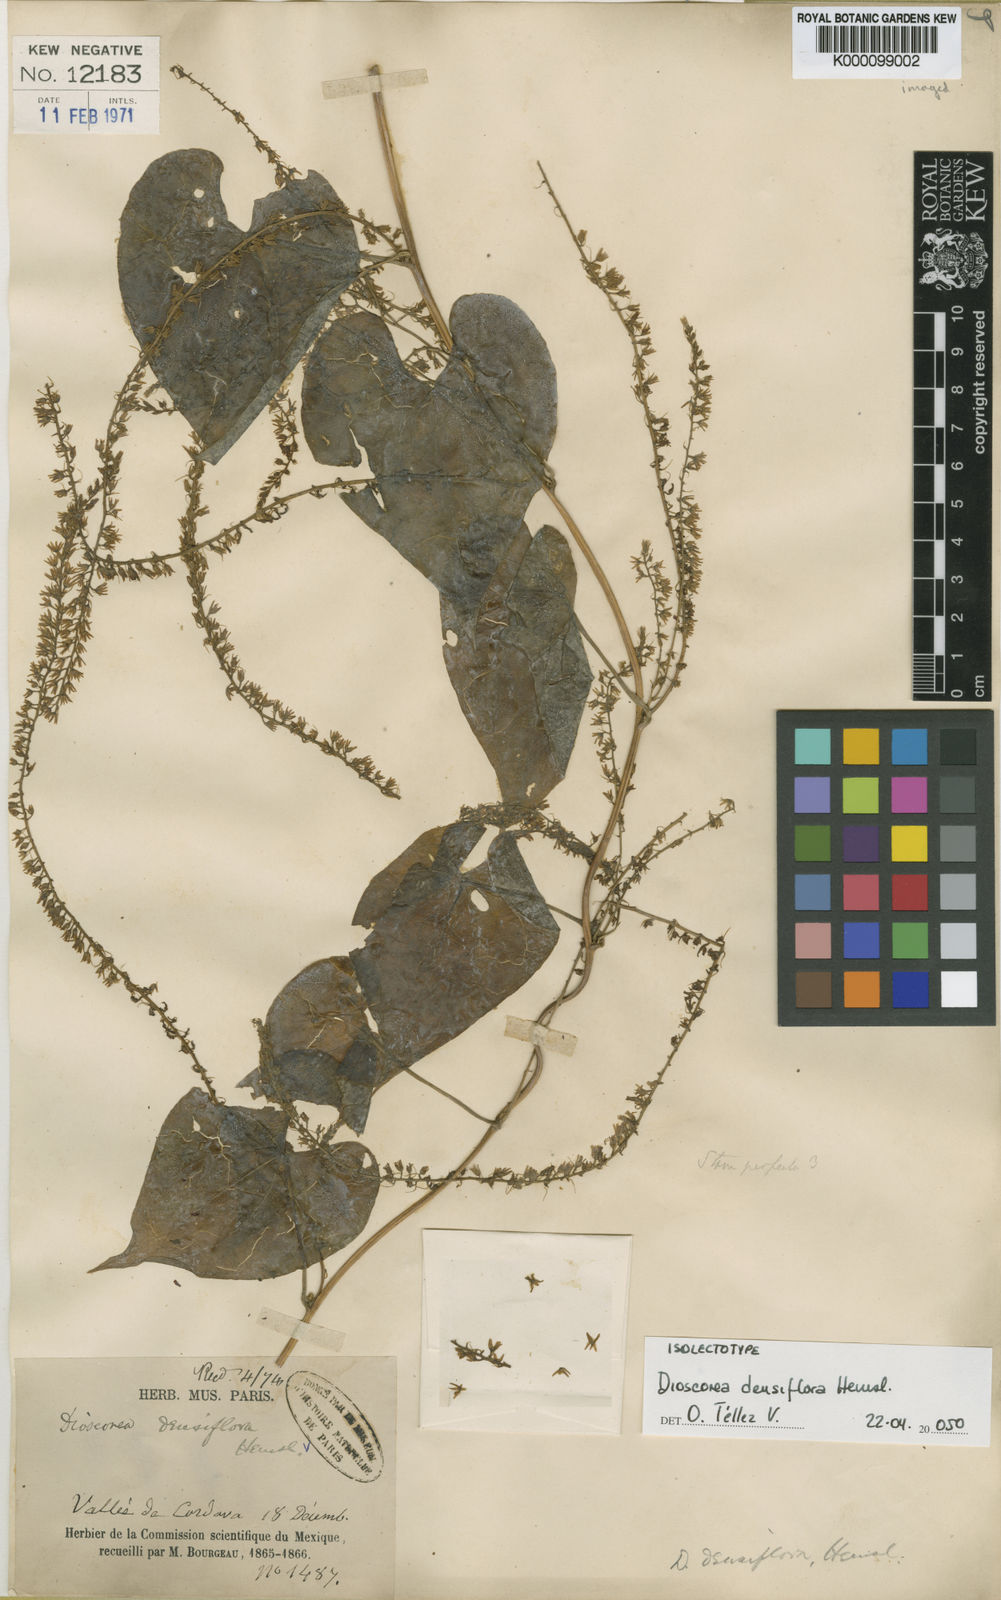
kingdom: Plantae
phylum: Tracheophyta
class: Liliopsida
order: Dioscoreales
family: Dioscoreaceae
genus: Dioscorea
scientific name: Dioscorea densiflora
